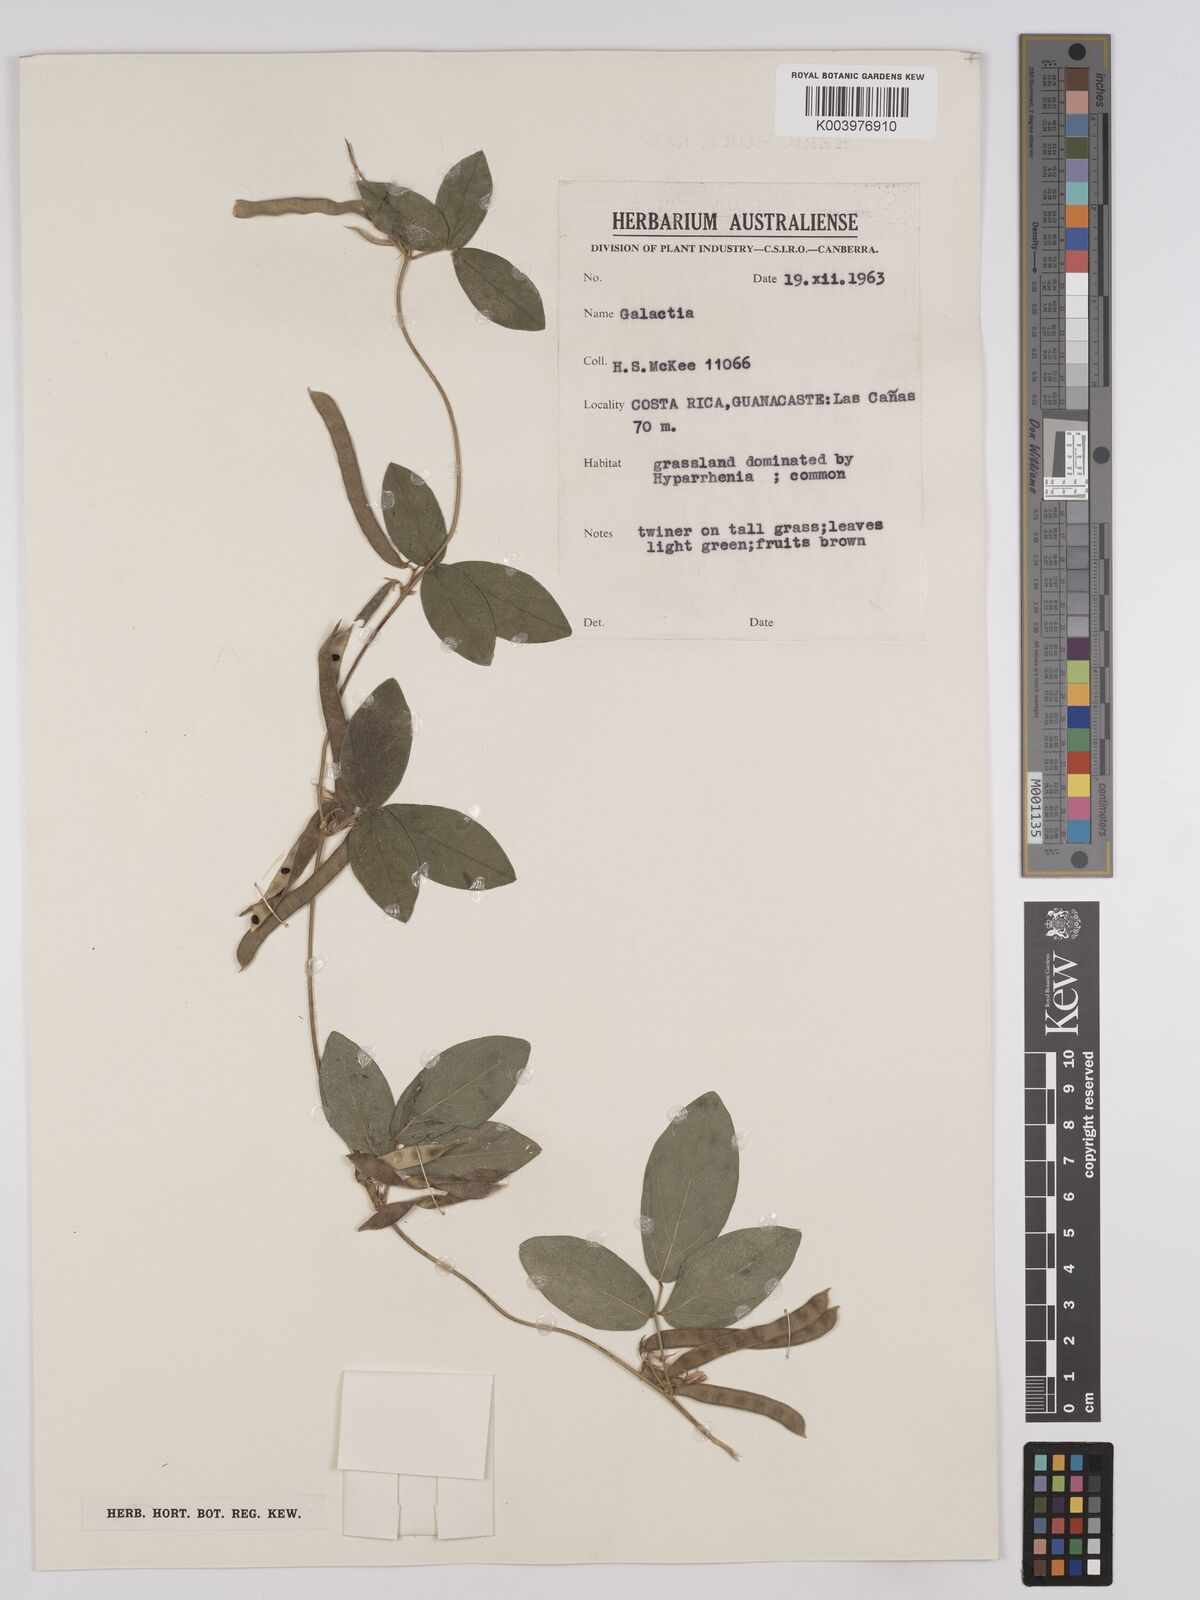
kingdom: Plantae
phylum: Tracheophyta
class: Magnoliopsida
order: Fabales
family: Fabaceae
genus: Galactia
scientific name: Galactia buchii
